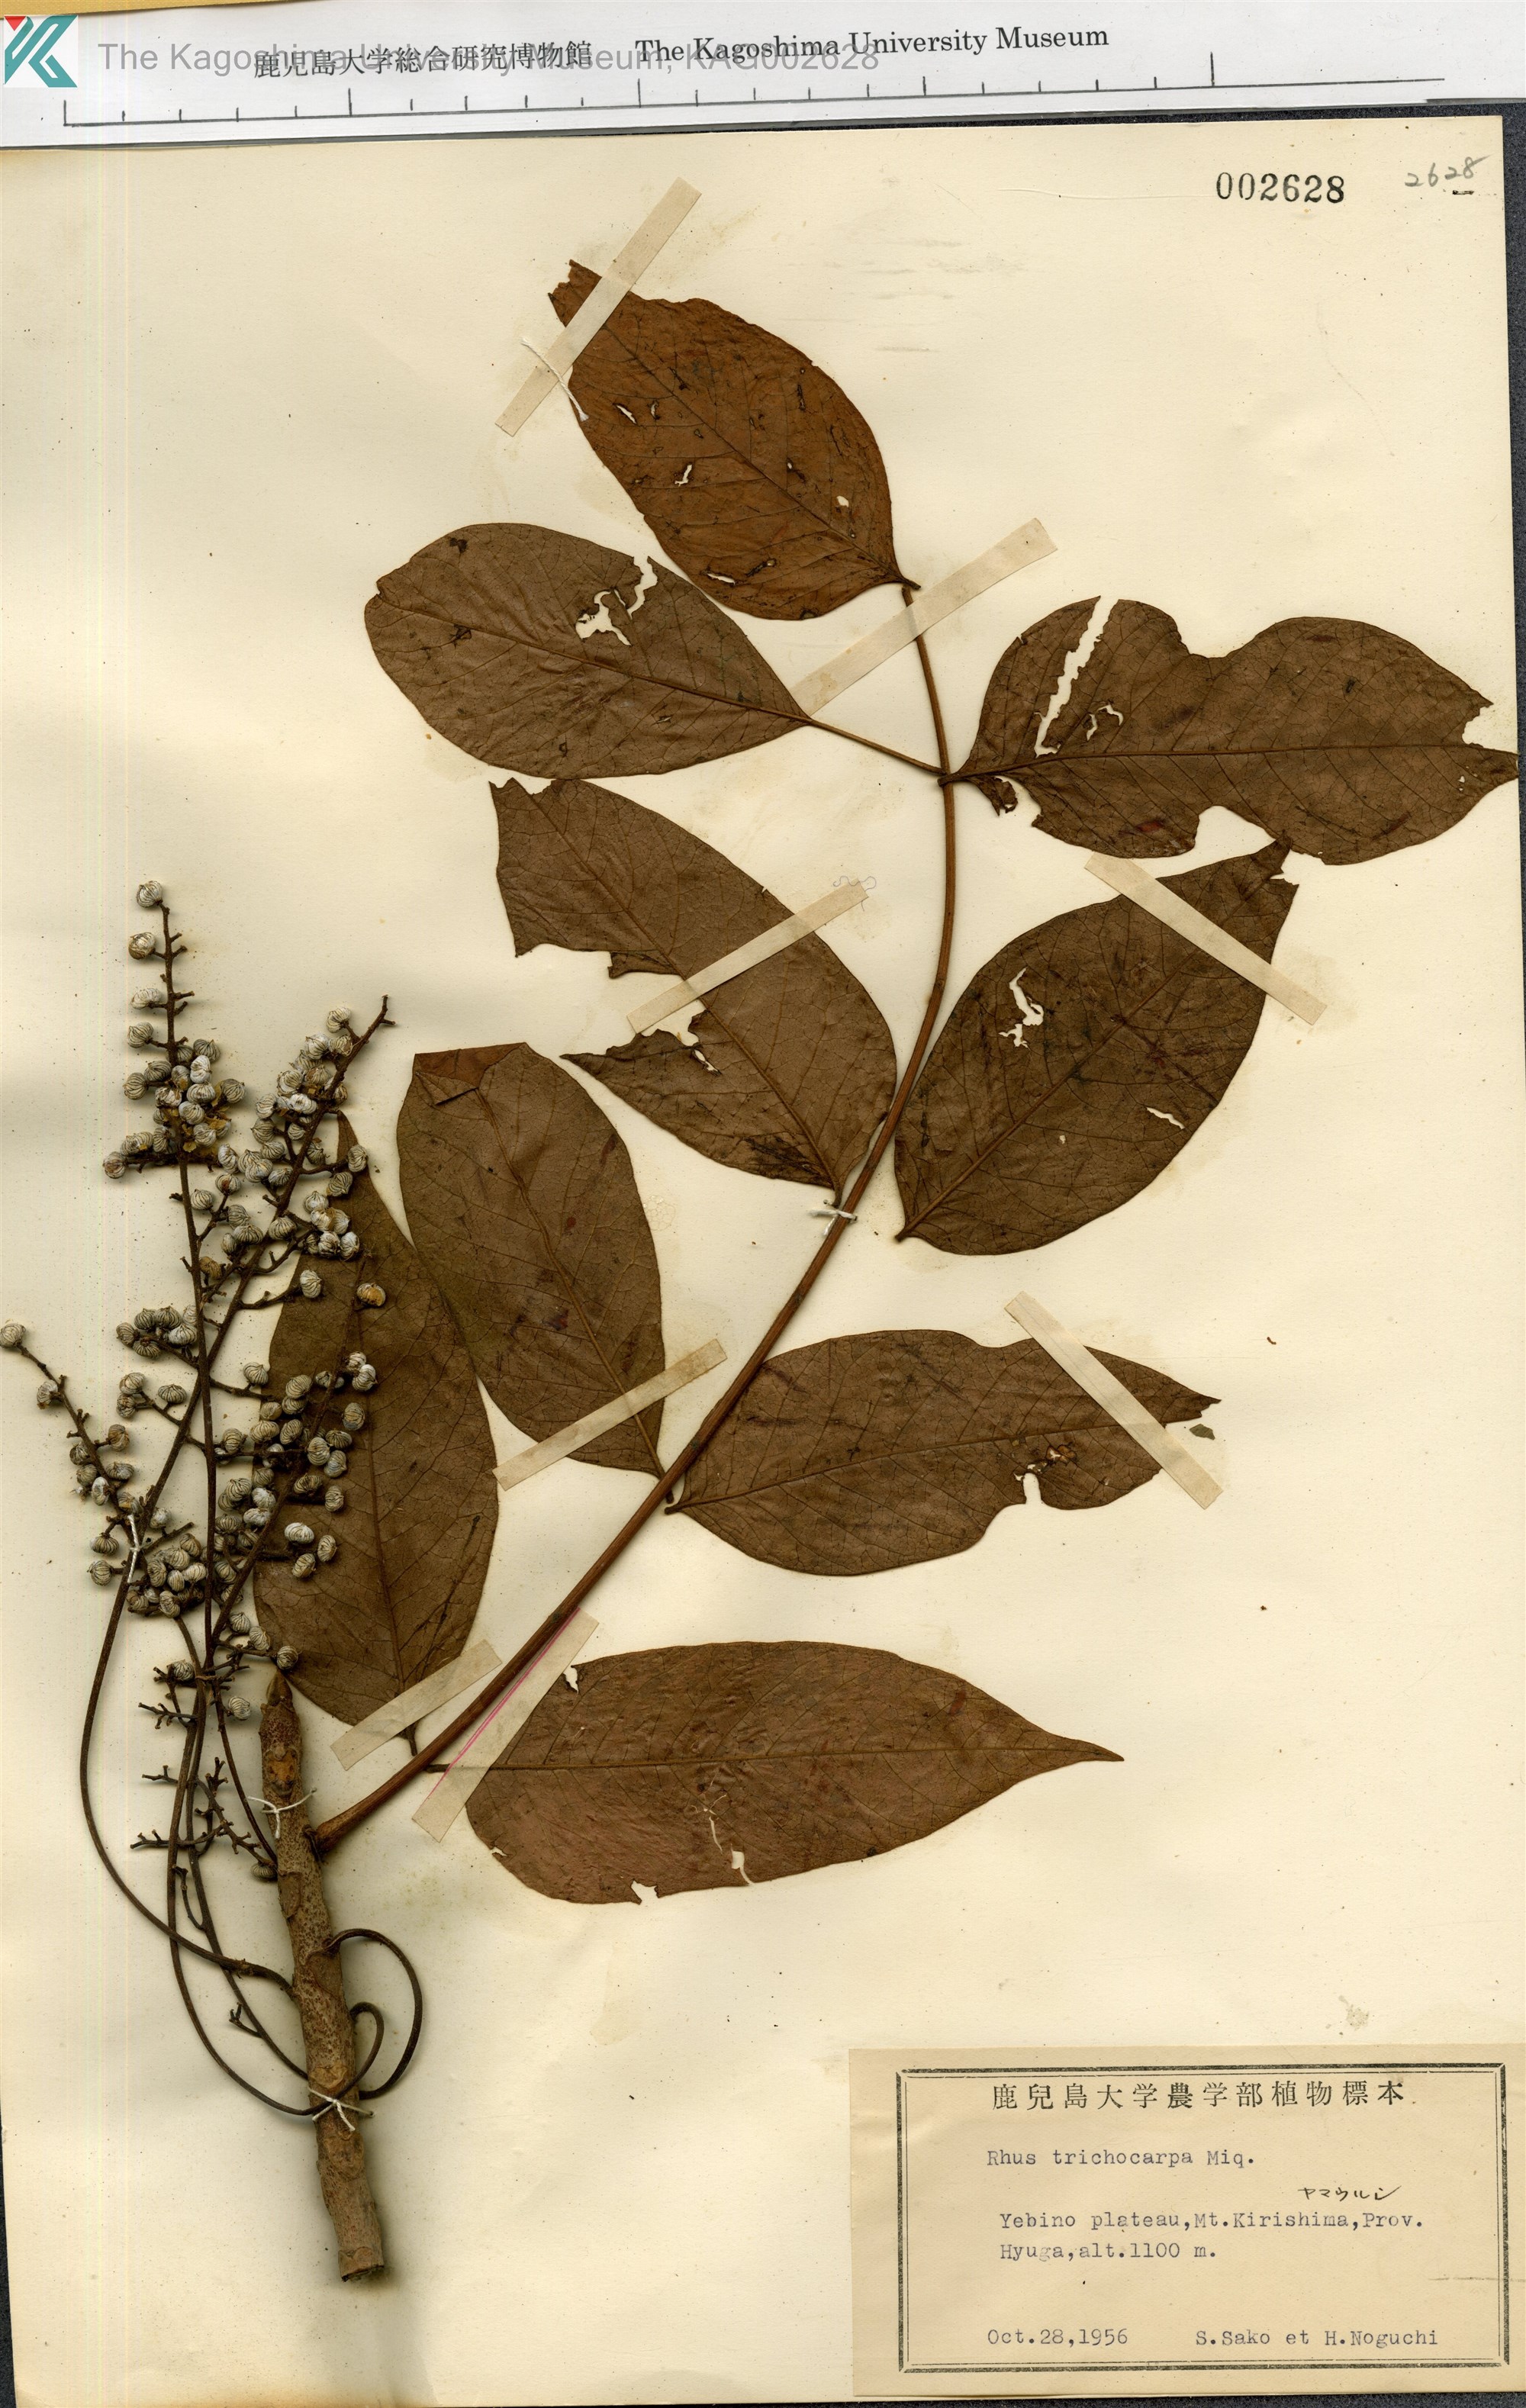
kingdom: Plantae
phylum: Tracheophyta
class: Magnoliopsida
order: Sapindales
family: Anacardiaceae
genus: Toxicodendron
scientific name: Toxicodendron trichocarpum
